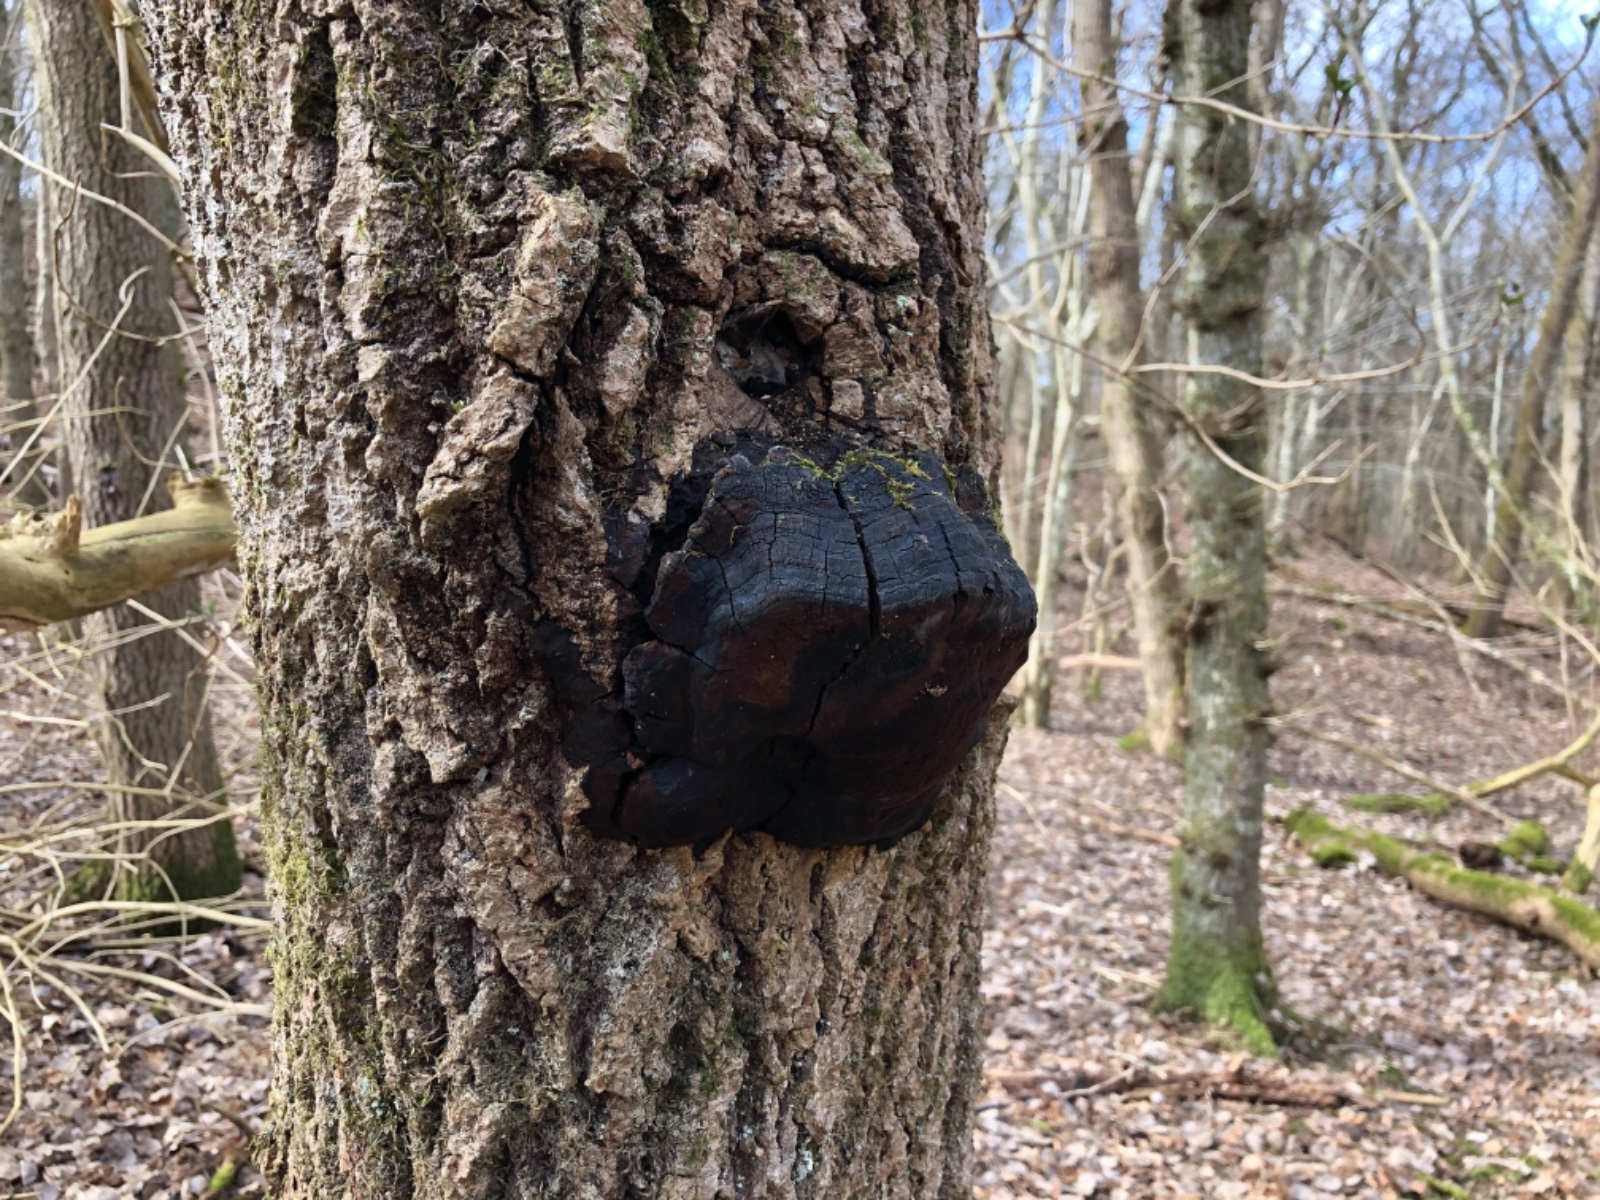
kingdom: Fungi
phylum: Basidiomycota
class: Agaricomycetes
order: Hymenochaetales
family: Hymenochaetaceae
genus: Phellinus
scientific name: Phellinus tremulae
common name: aspe-ildporesvamp
